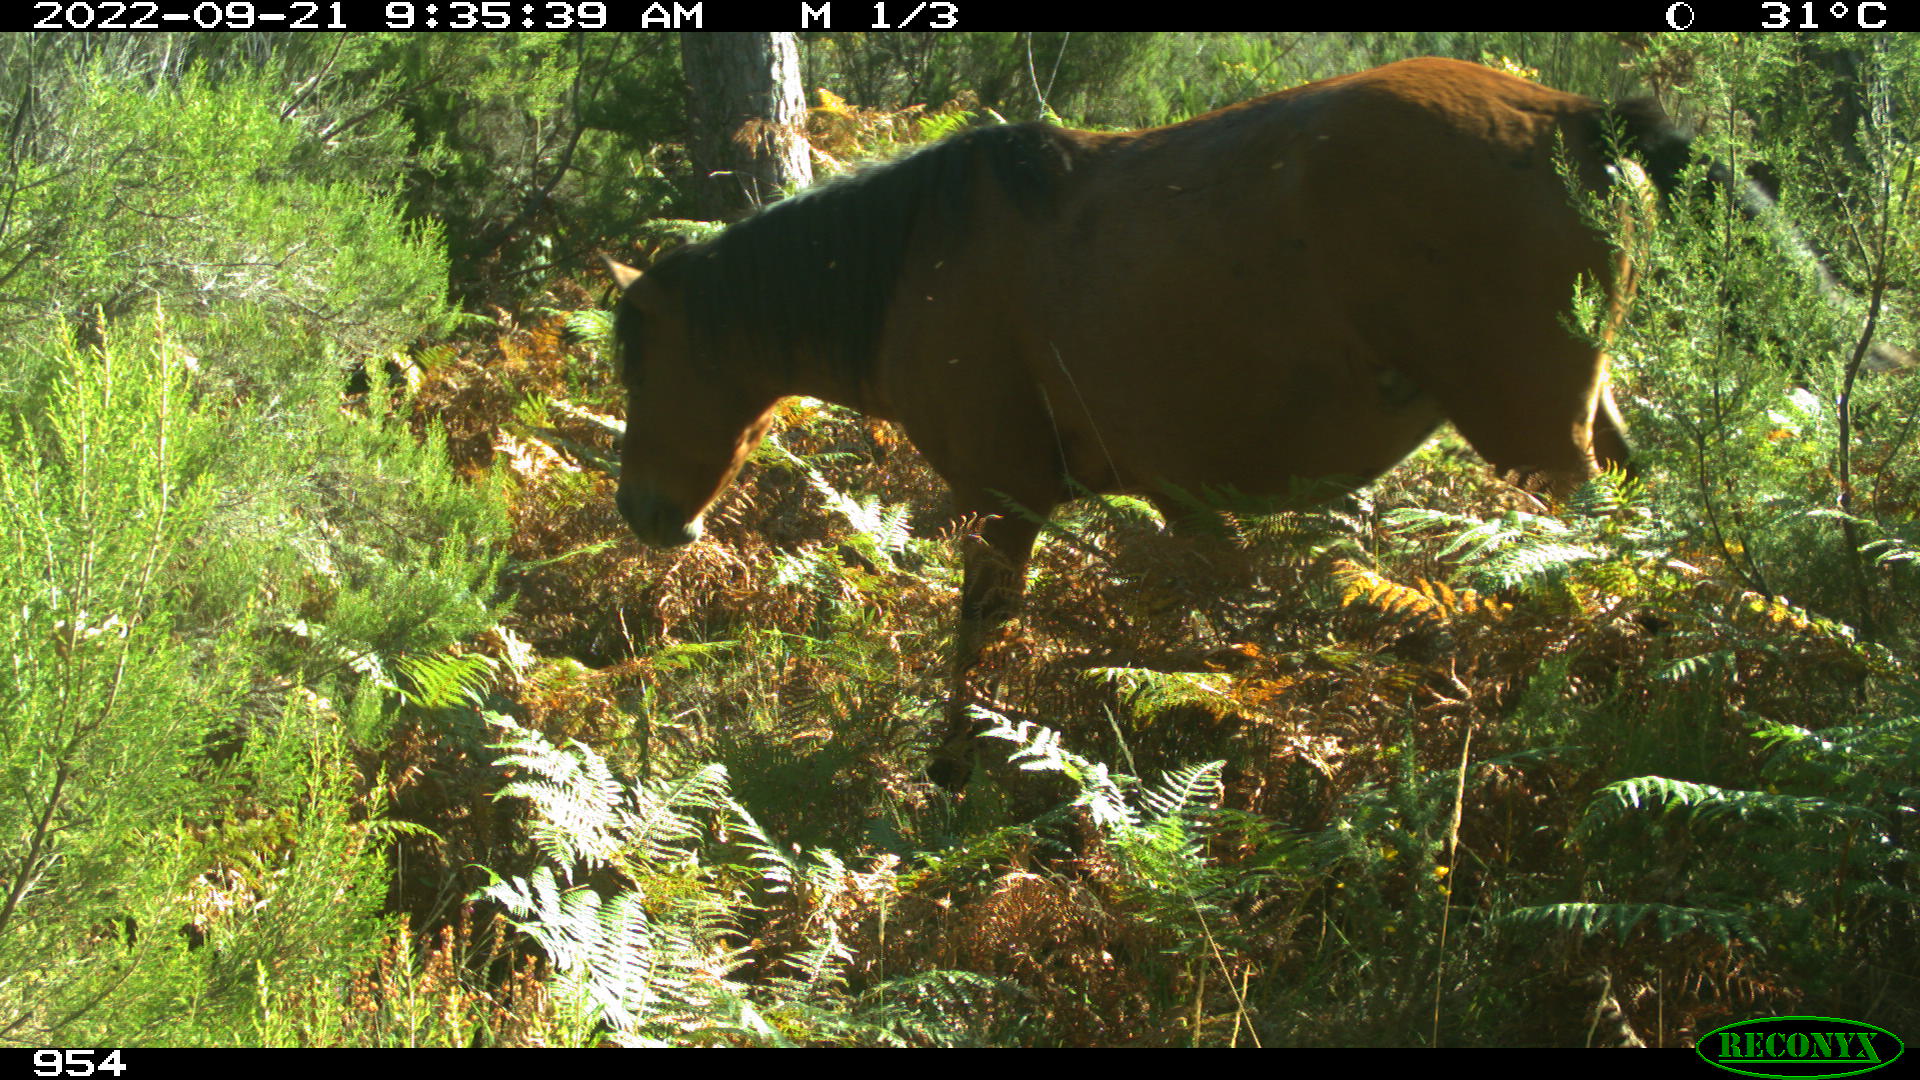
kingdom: Animalia
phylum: Chordata
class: Mammalia
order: Perissodactyla
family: Equidae
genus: Equus
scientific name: Equus caballus
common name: Horse
